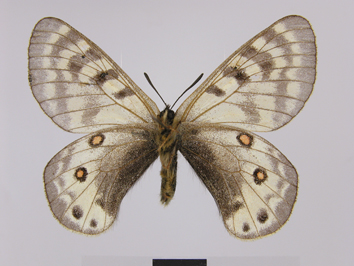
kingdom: Animalia
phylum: Arthropoda
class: Insecta
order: Lepidoptera
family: Papilionidae
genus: Parnassius
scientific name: Parnassius staudingeri
